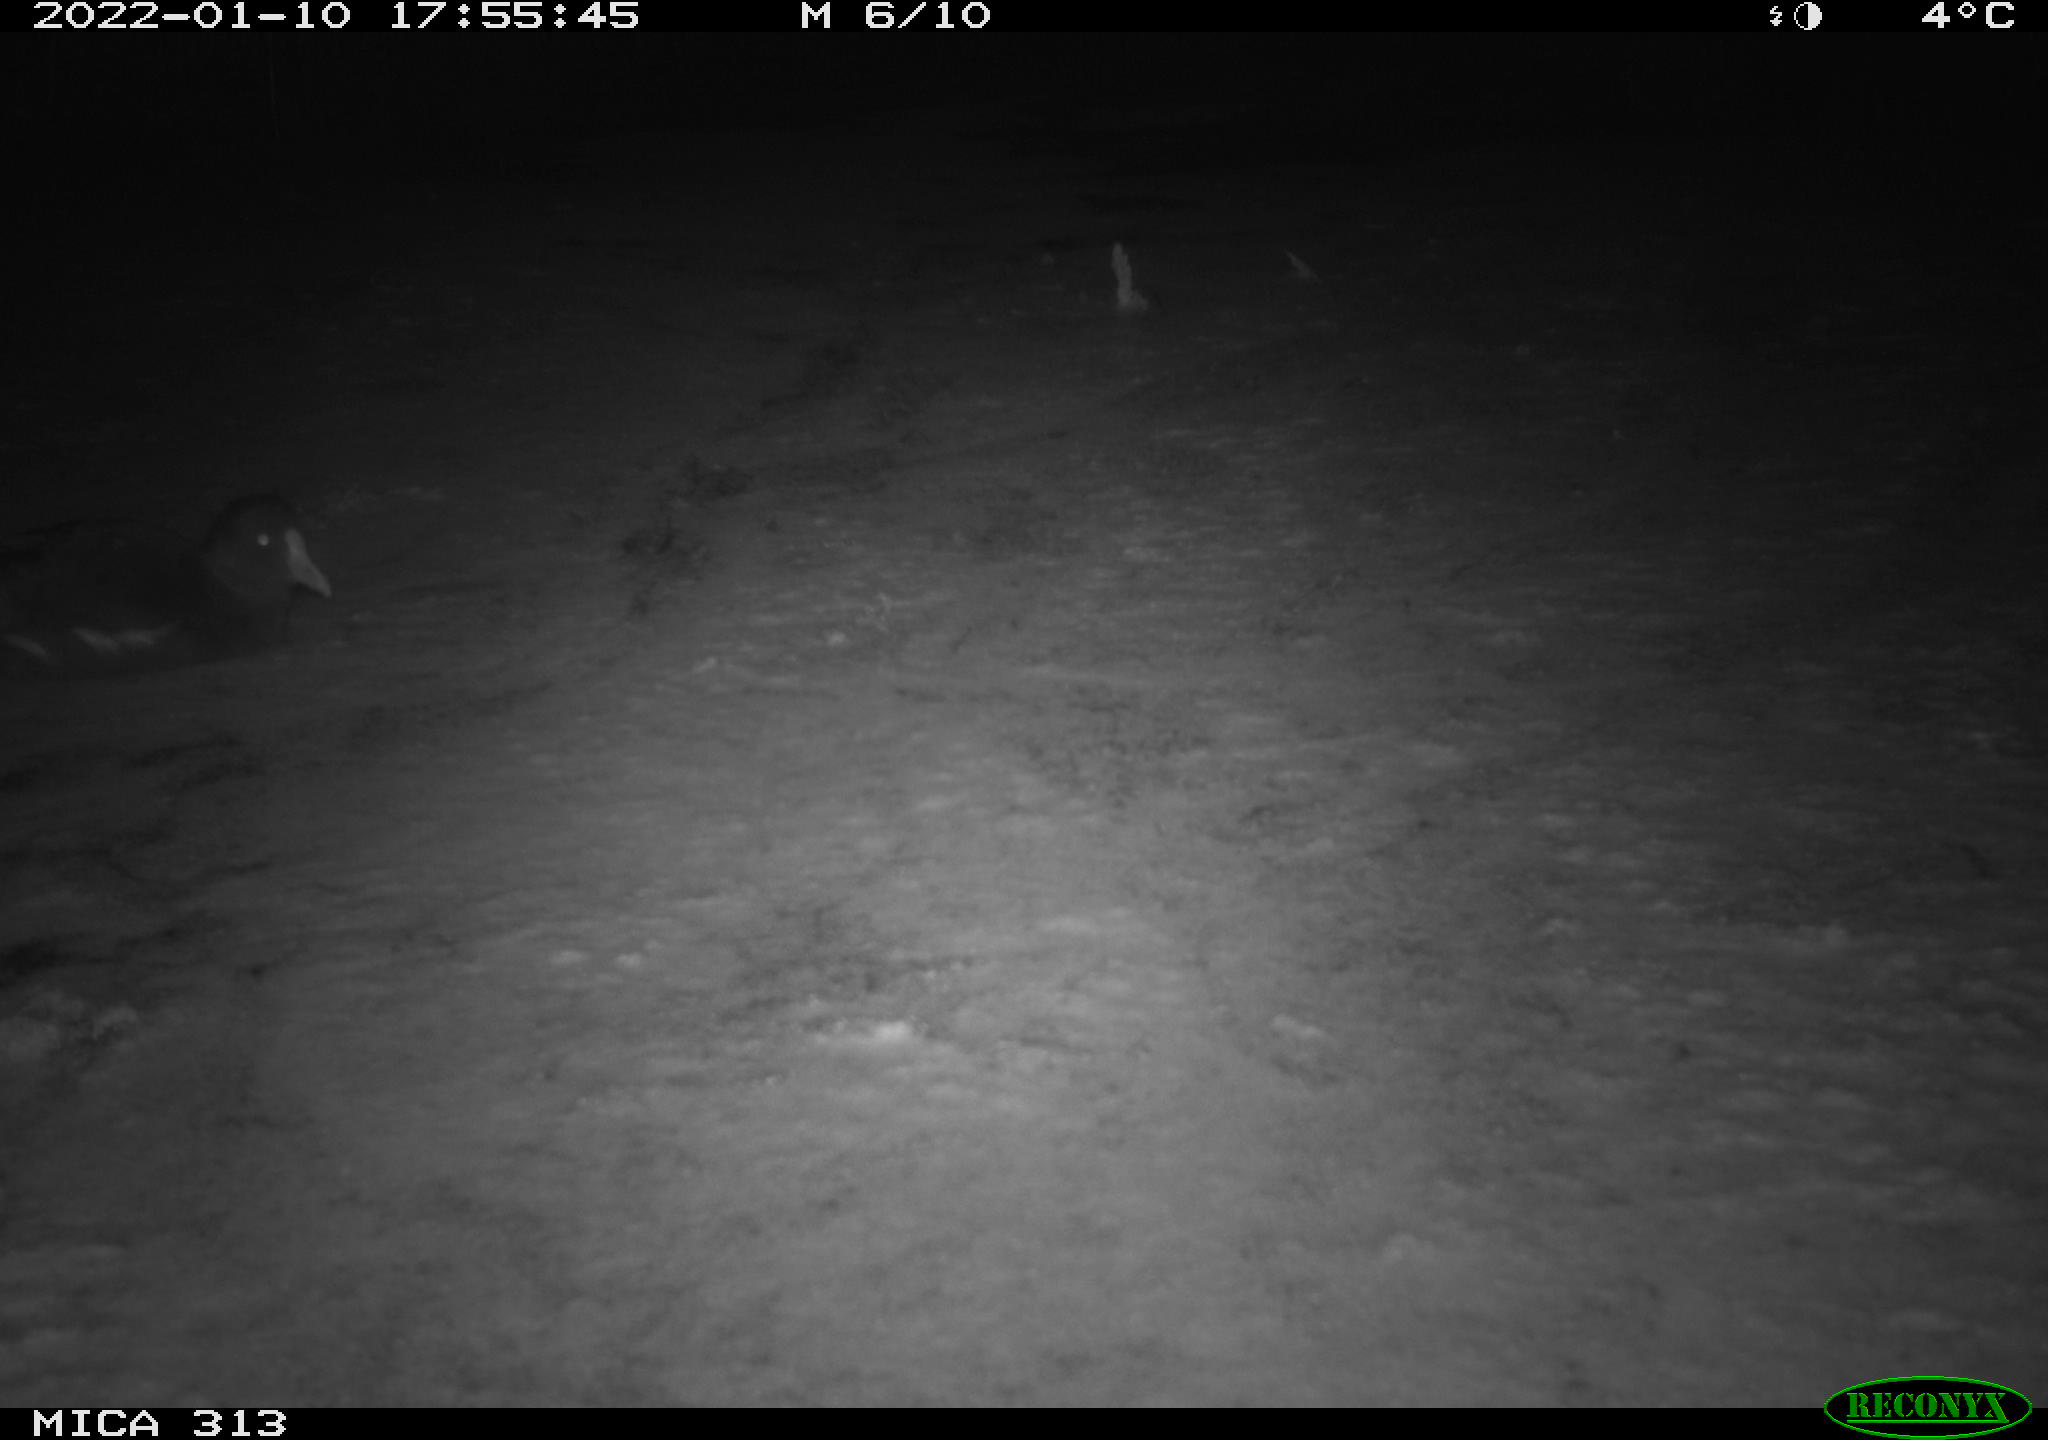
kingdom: Animalia
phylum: Chordata
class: Aves
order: Gruiformes
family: Rallidae
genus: Gallinula
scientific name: Gallinula chloropus
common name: Common moorhen
